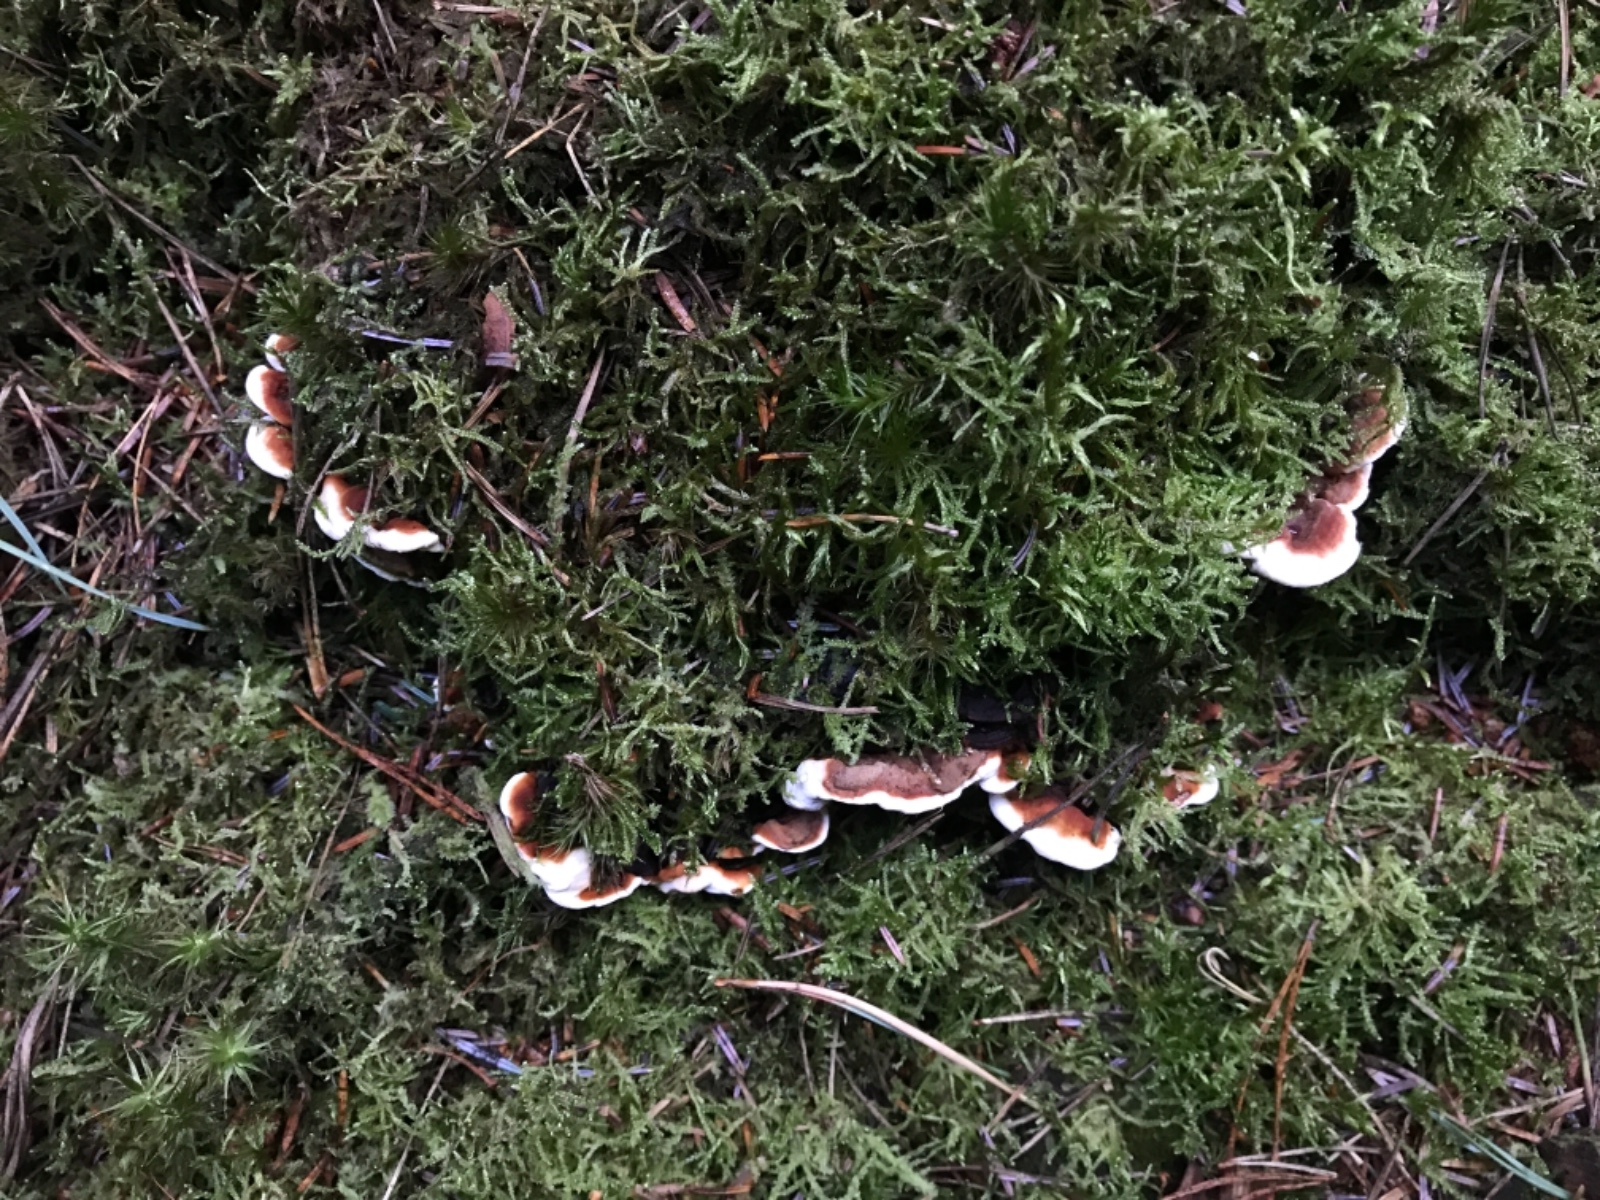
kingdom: Fungi
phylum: Basidiomycota
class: Agaricomycetes
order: Russulales
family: Bondarzewiaceae
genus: Heterobasidion
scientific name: Heterobasidion annosum
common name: almindelig rodfordærver
